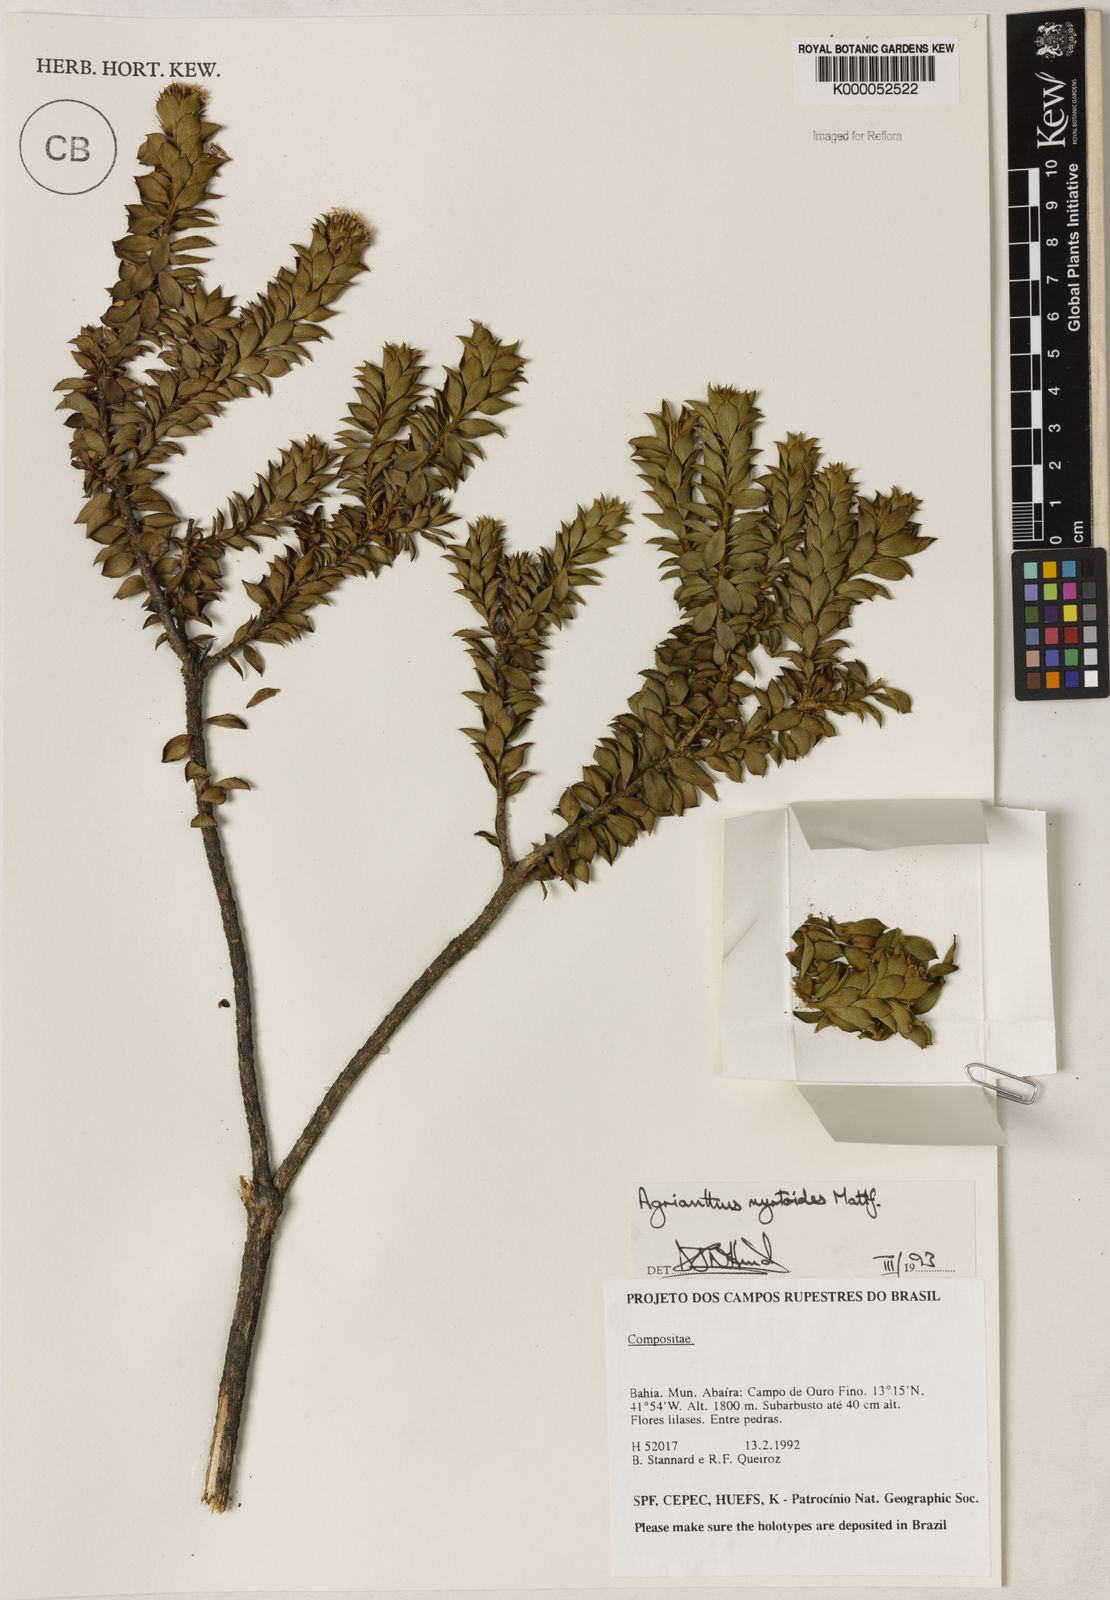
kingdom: Plantae
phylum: Tracheophyta
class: Magnoliopsida
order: Asterales
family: Asteraceae
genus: Agrianthus
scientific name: Agrianthus myrtoides
